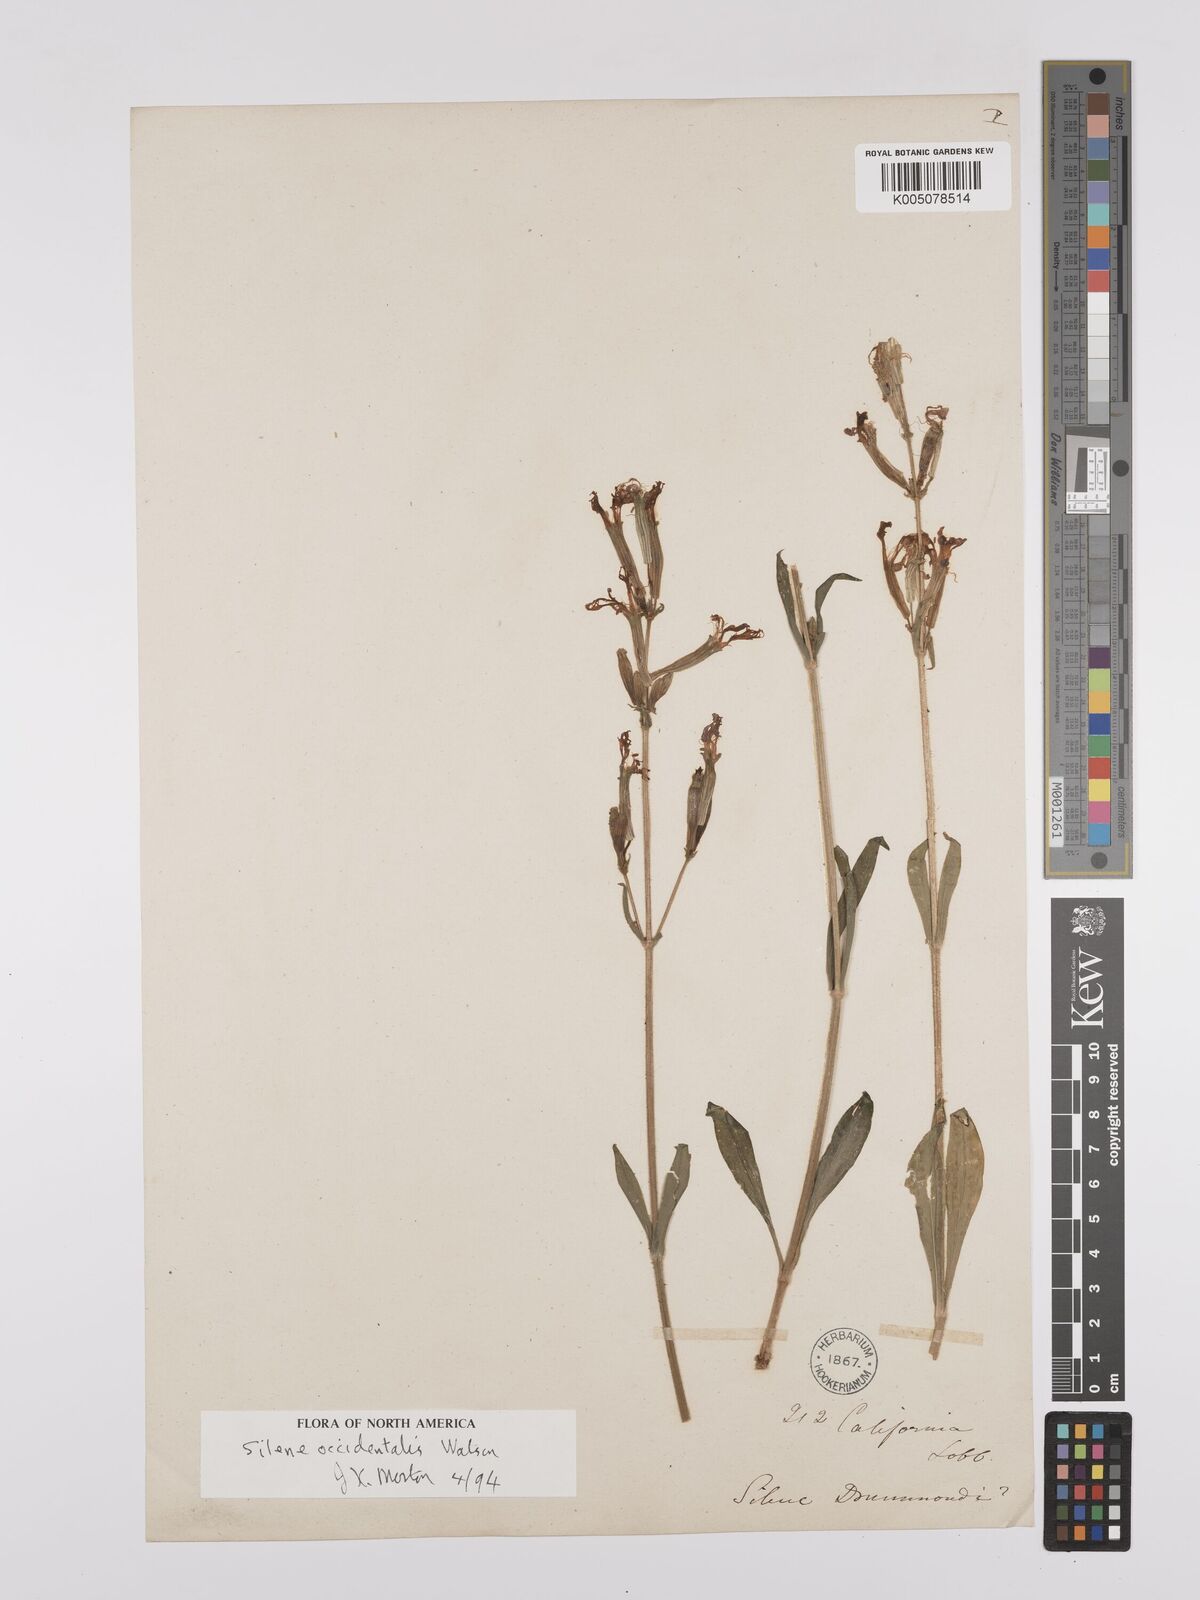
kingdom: Plantae
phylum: Tracheophyta
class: Magnoliopsida
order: Caryophyllales
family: Caryophyllaceae
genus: Silene
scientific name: Silene occidentalis
